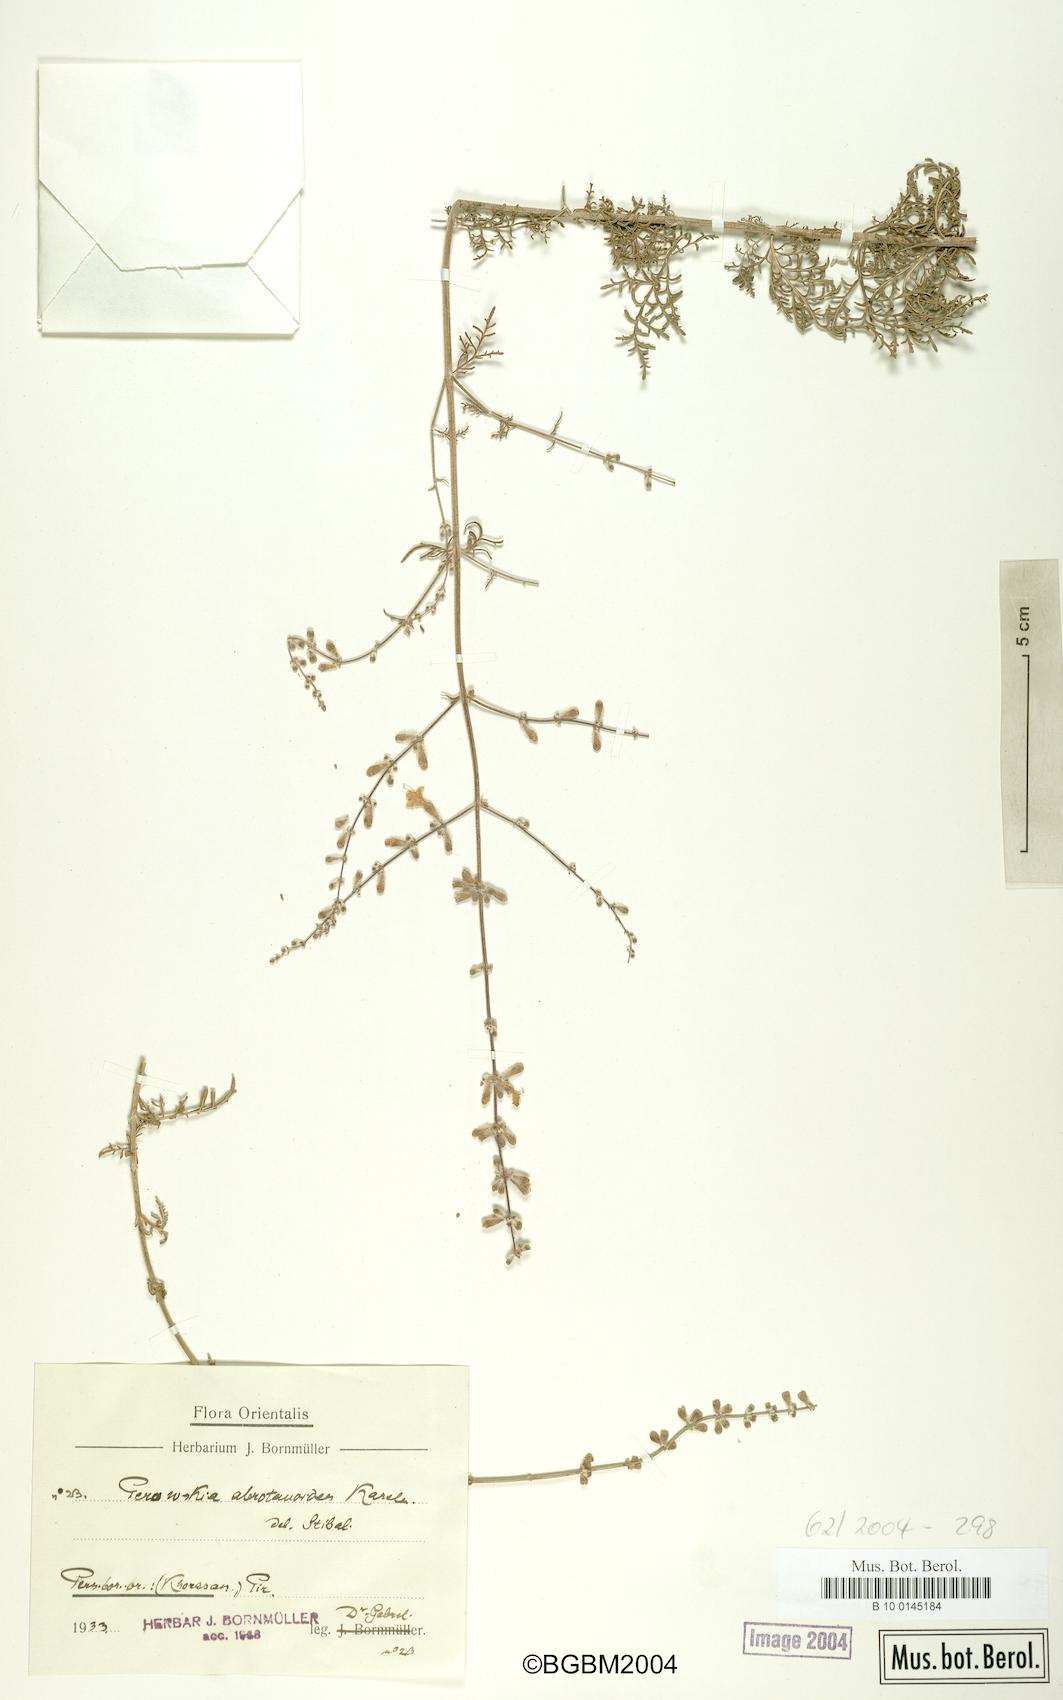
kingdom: Plantae
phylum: Tracheophyta
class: Magnoliopsida
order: Lamiales
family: Lamiaceae
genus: Salvia
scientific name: Salvia abrotanoides
